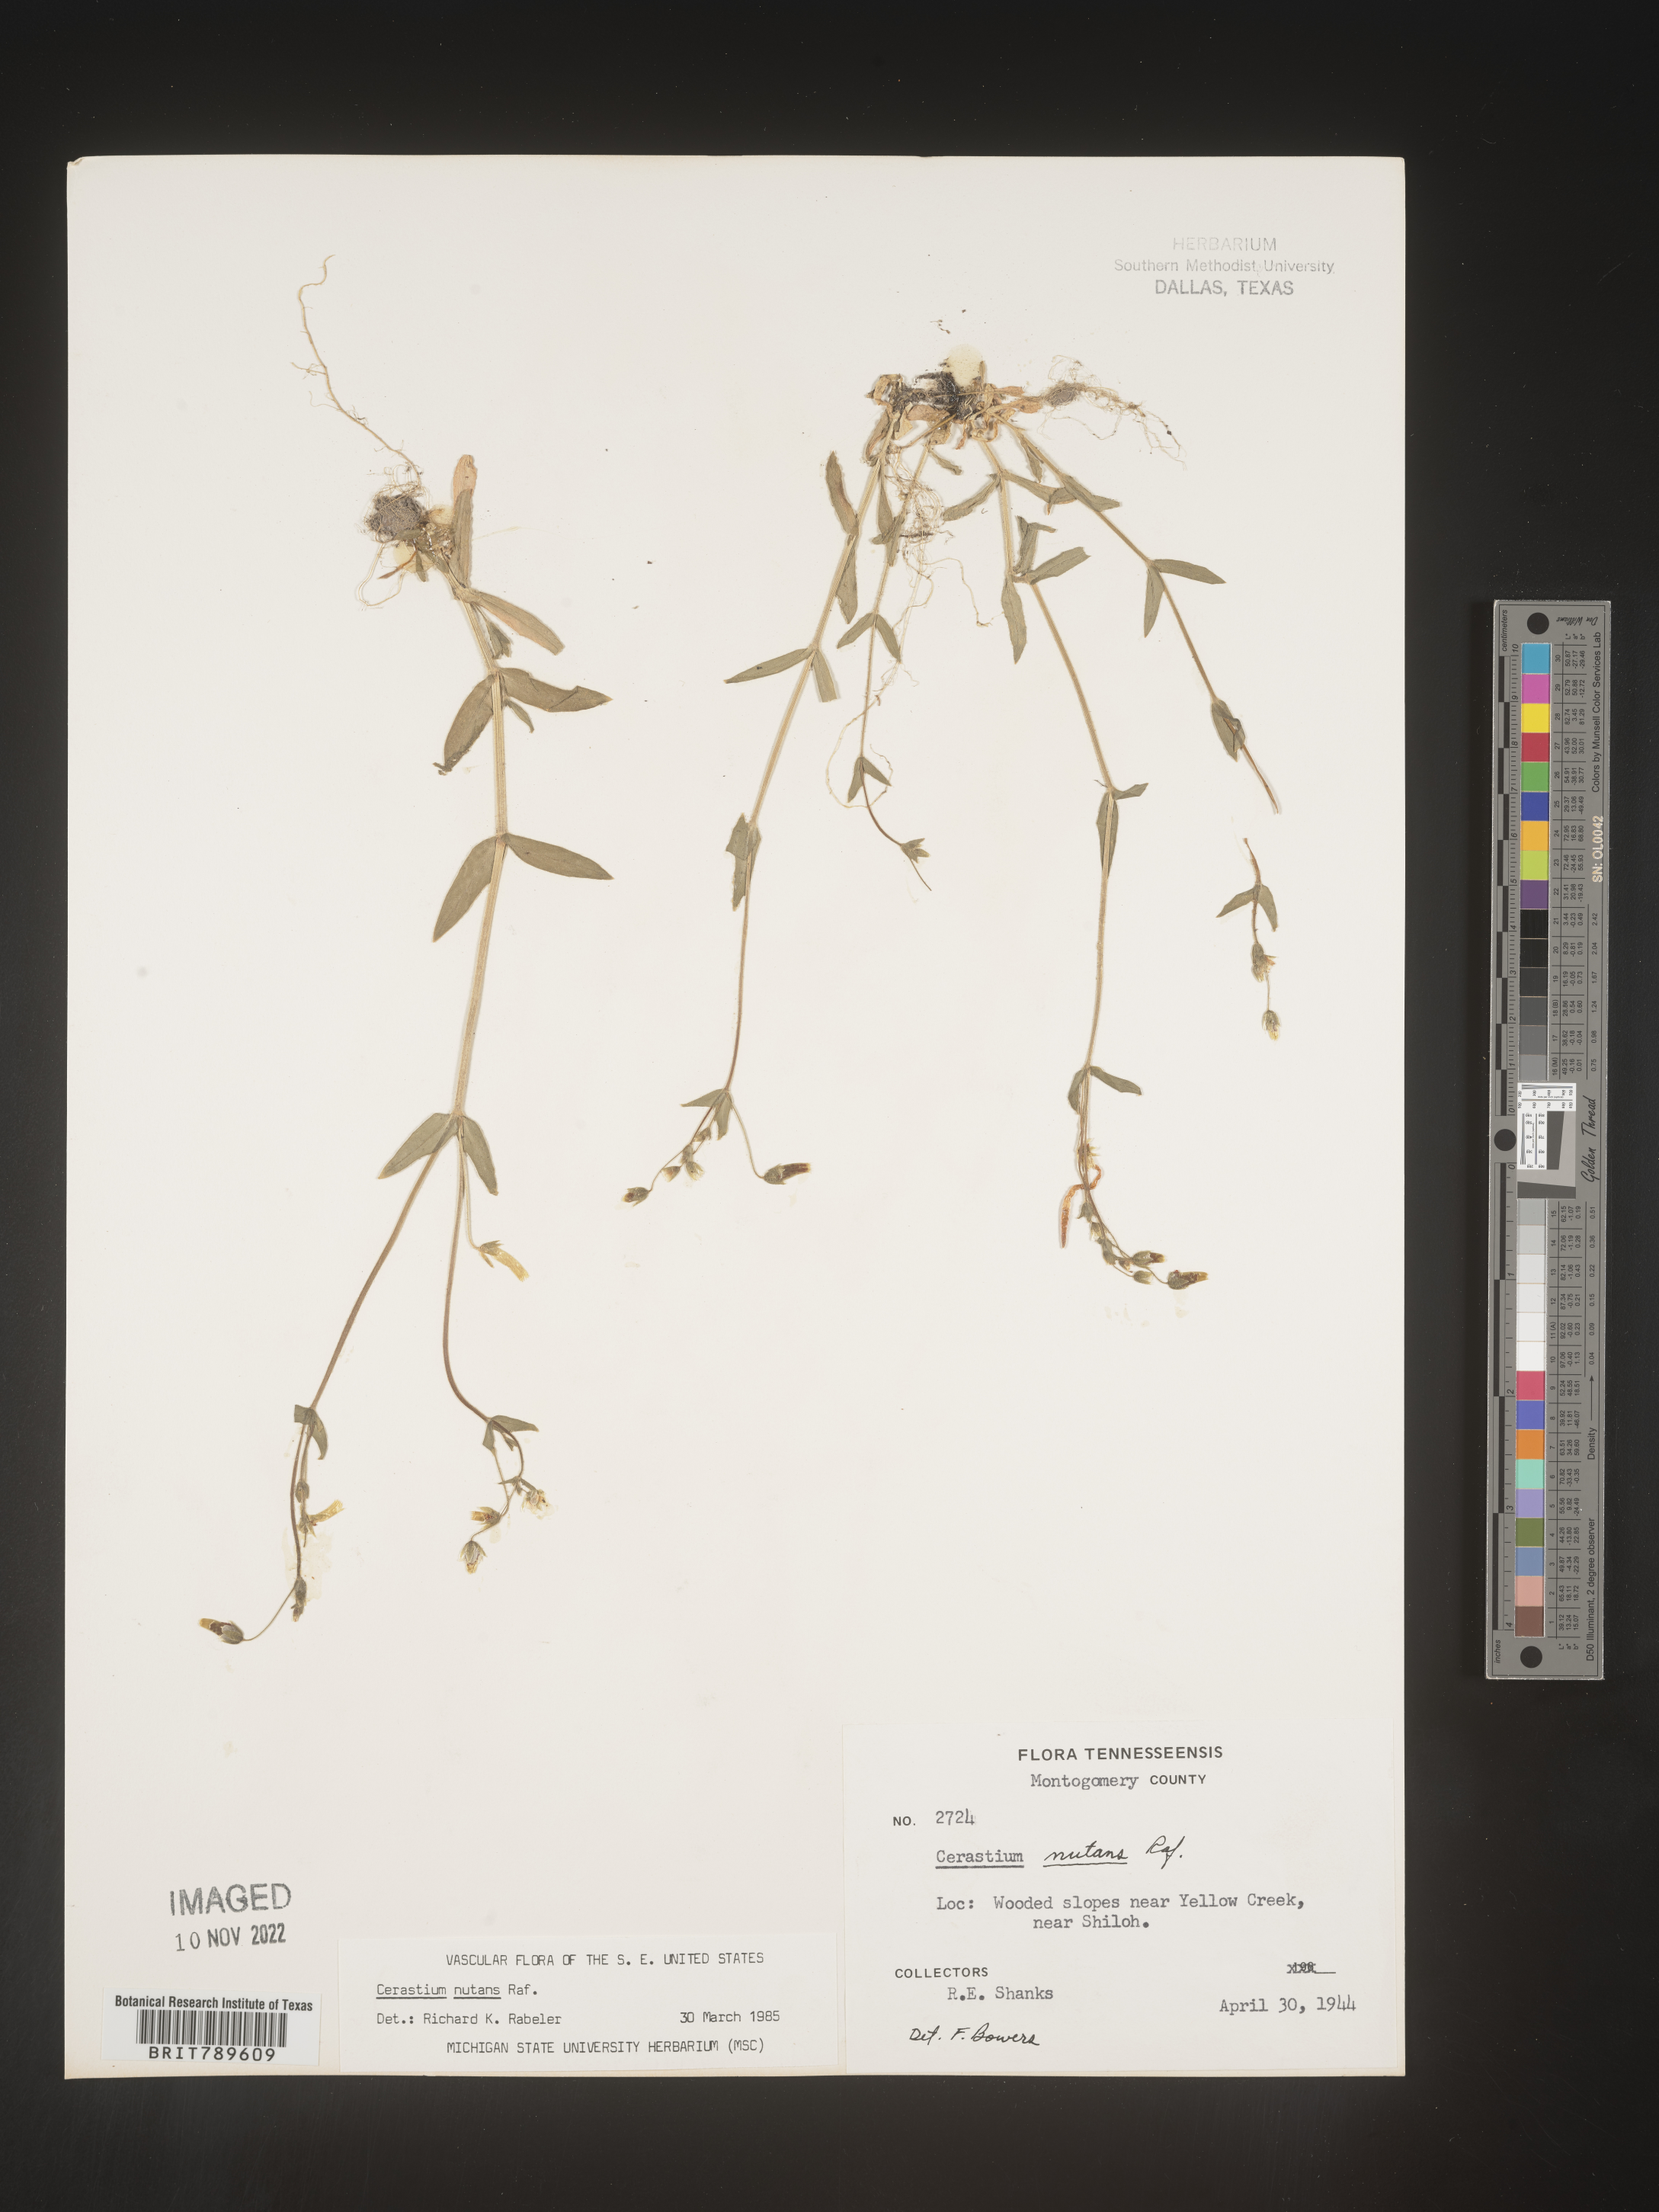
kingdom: Plantae
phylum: Tracheophyta
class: Magnoliopsida
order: Caryophyllales
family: Caryophyllaceae
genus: Cerastium
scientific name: Cerastium nutans
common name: Long-stalked chickweed
